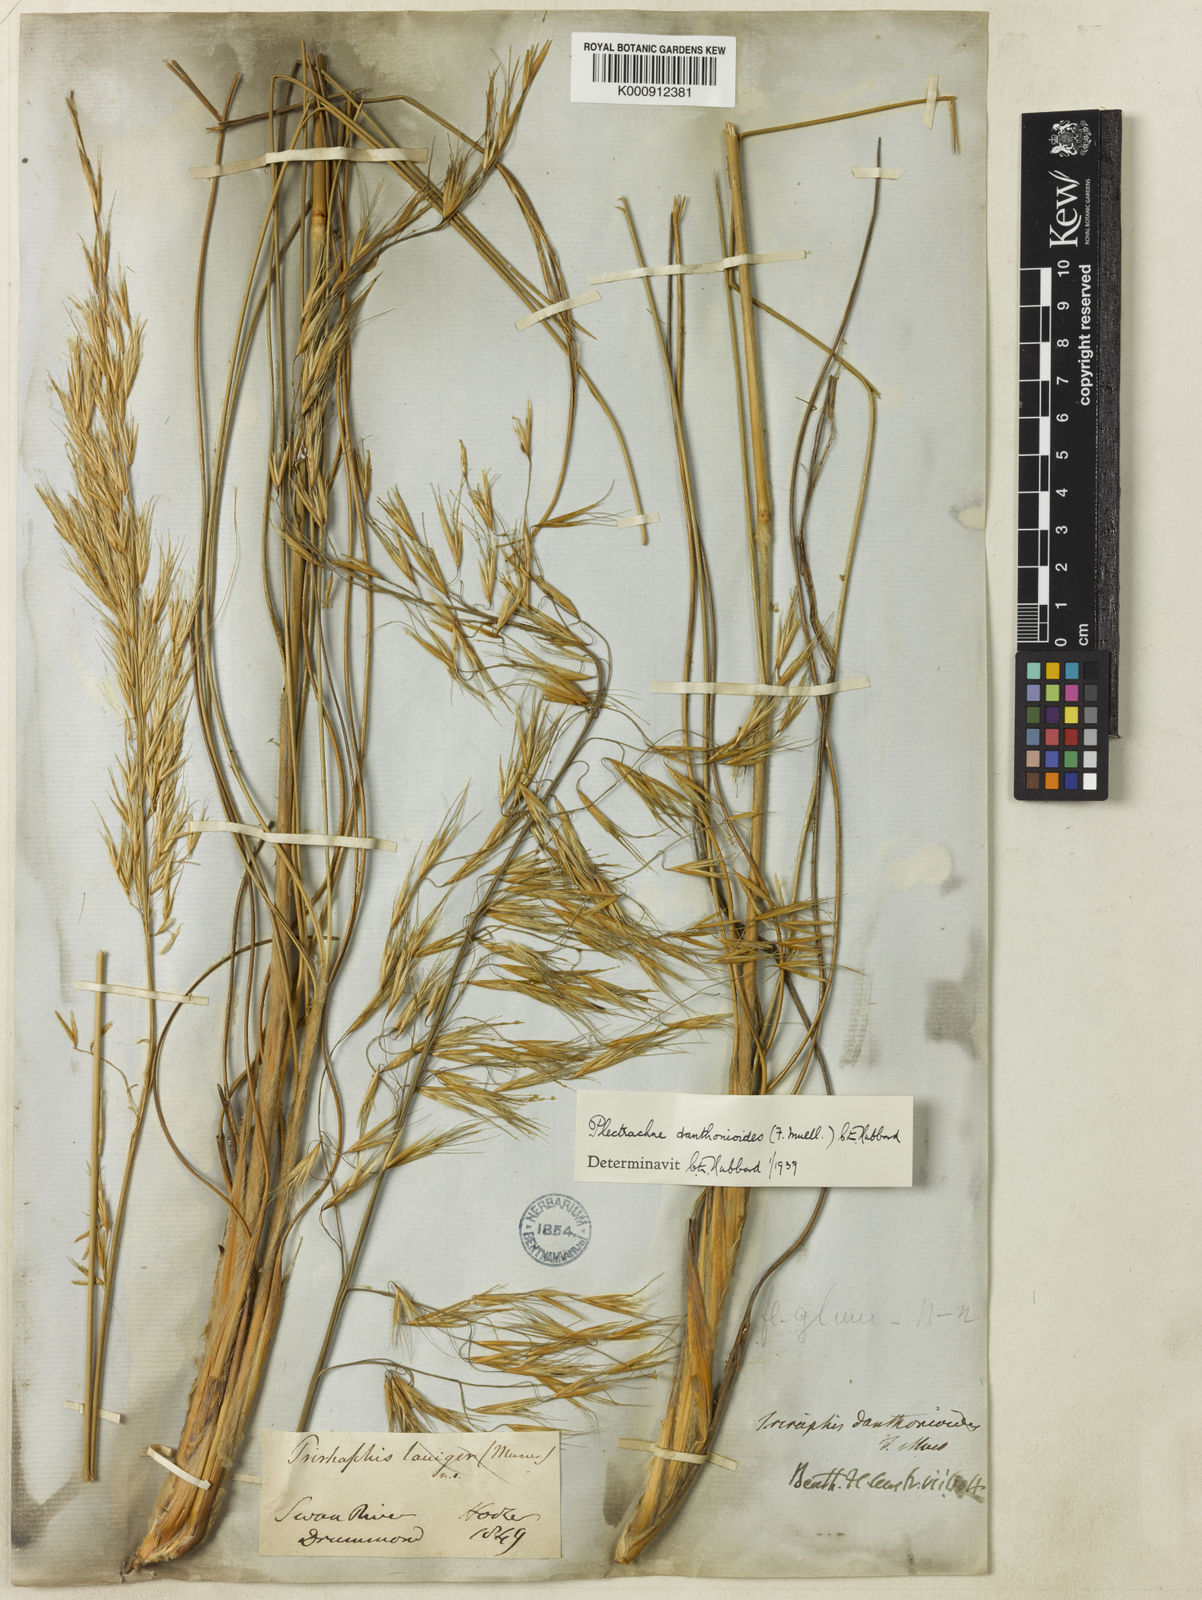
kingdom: Plantae
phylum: Tracheophyta
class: Liliopsida
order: Poales
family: Poaceae
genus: Triodia
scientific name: Triodia danthonioides
